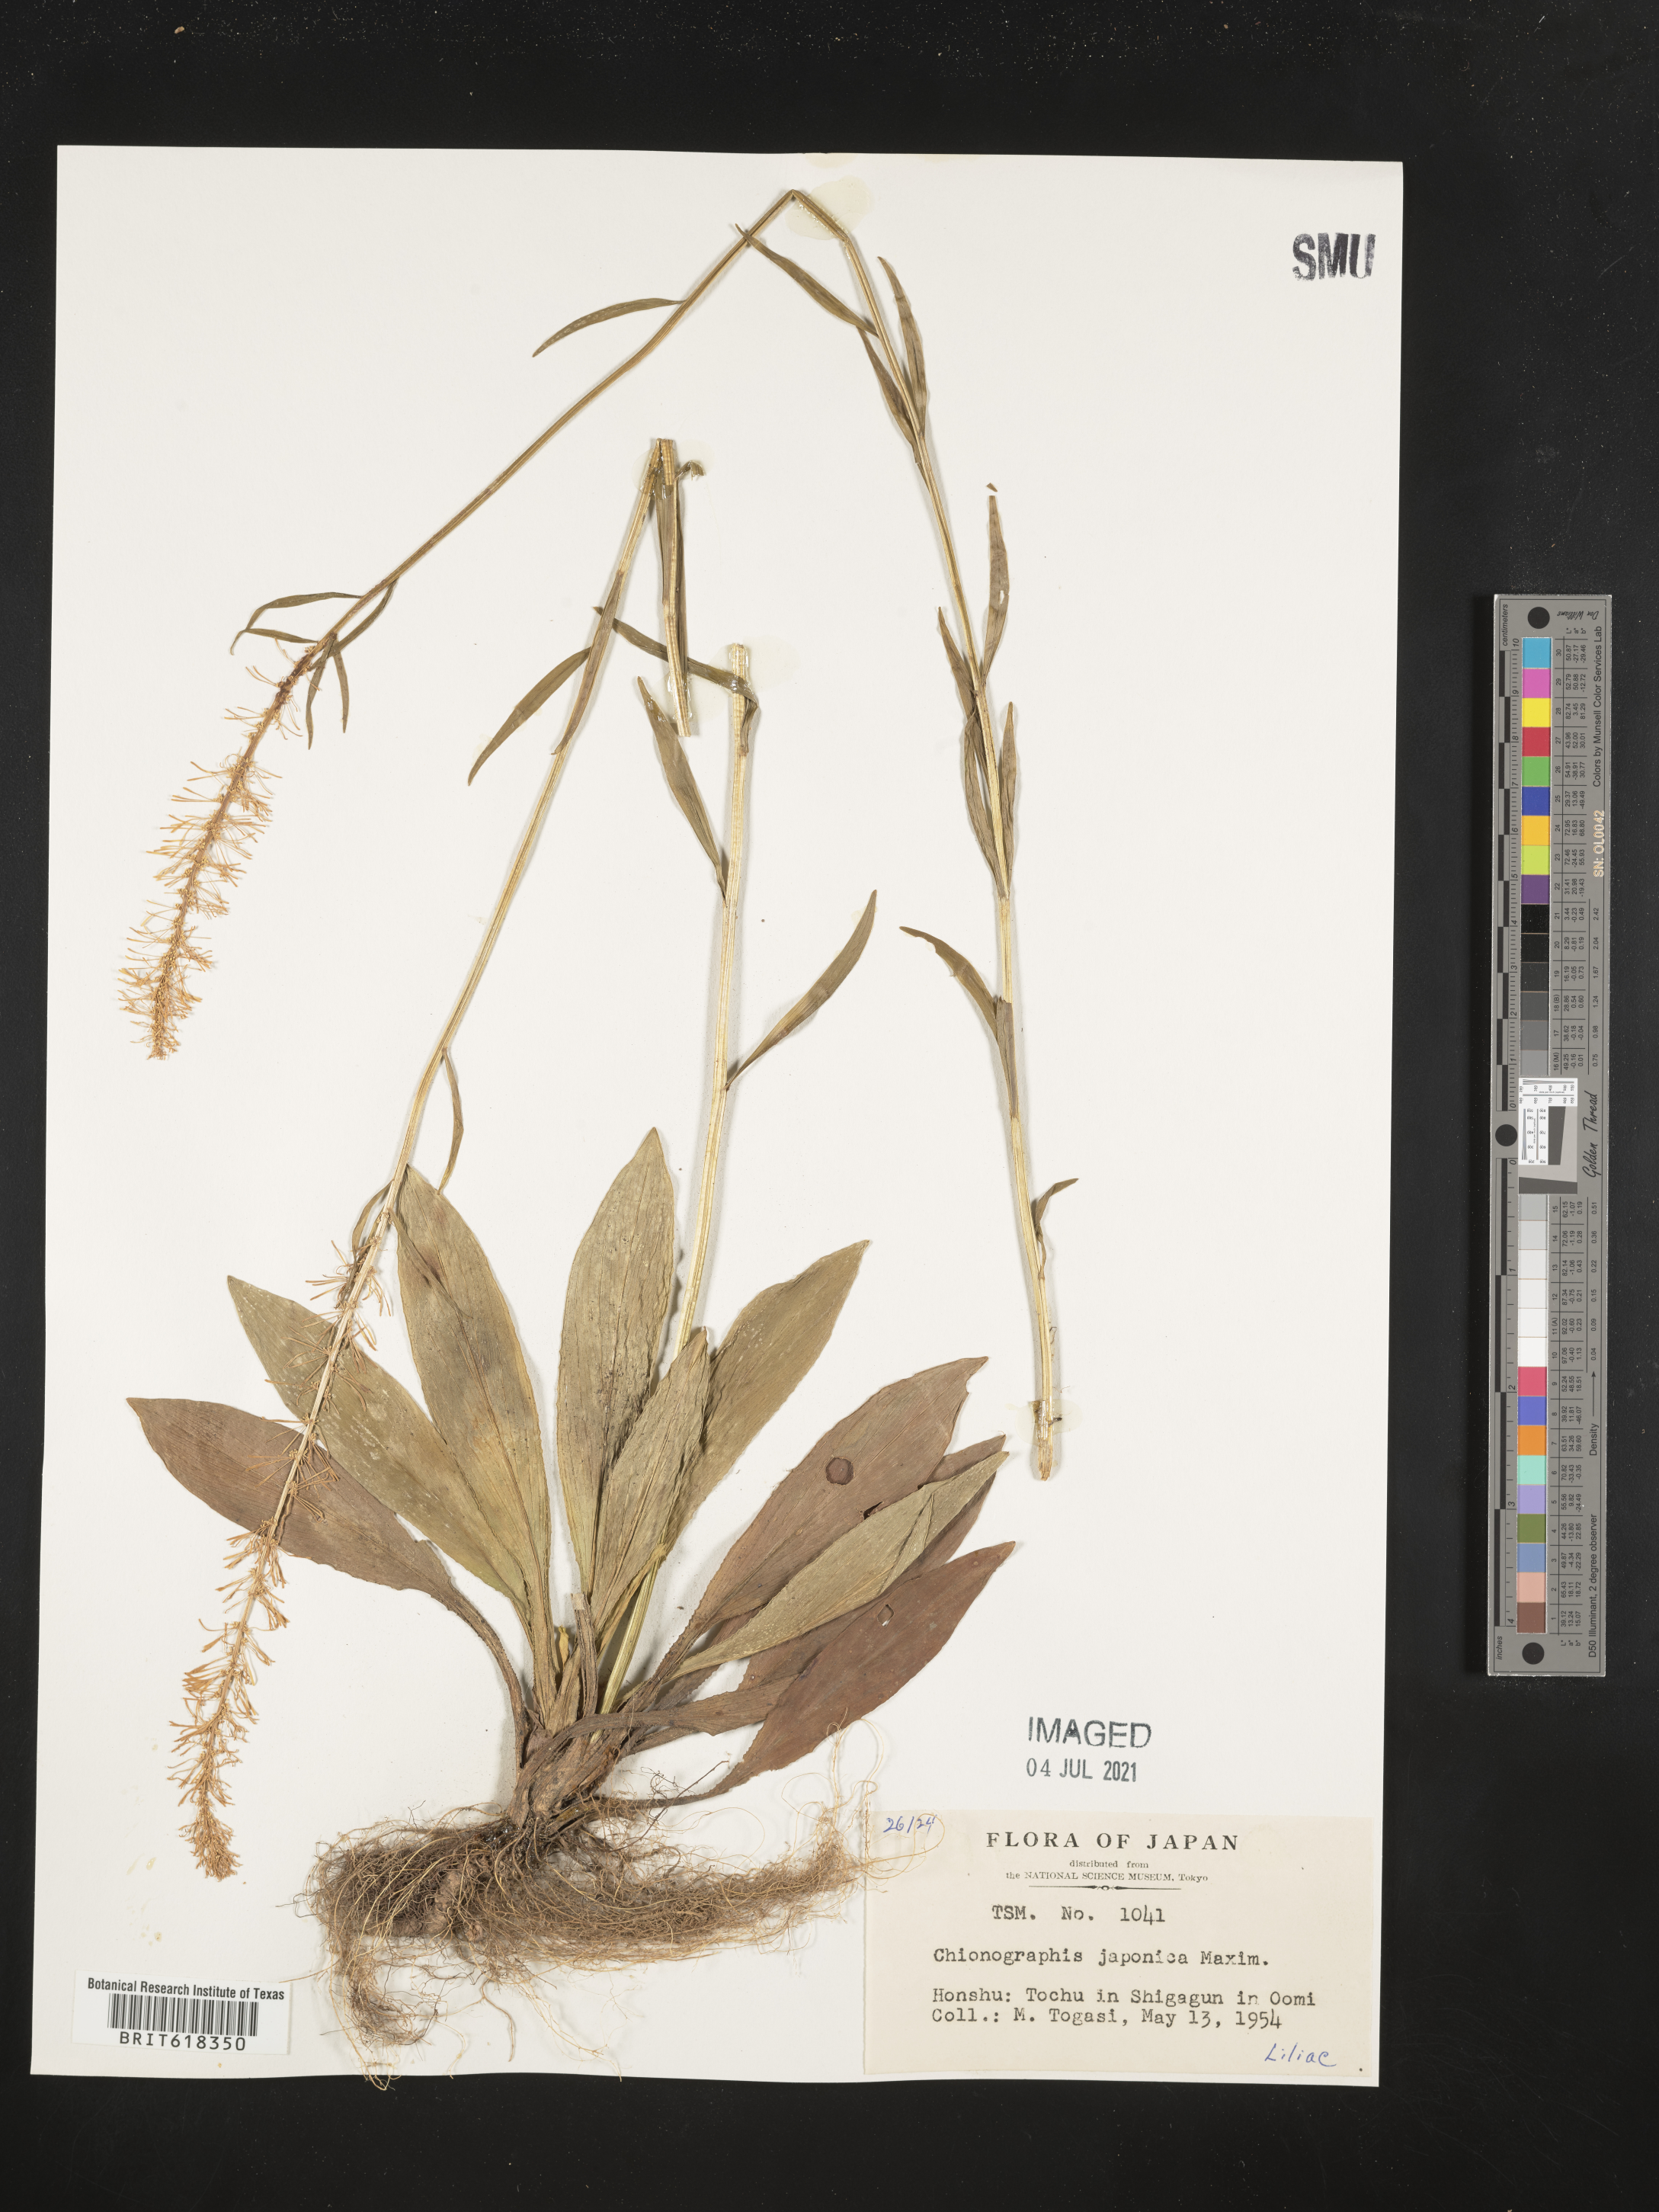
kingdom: Plantae
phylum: Tracheophyta
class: Liliopsida
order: Liliales
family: Melanthiaceae
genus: Chamaelirium
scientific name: Chamaelirium japonicum
